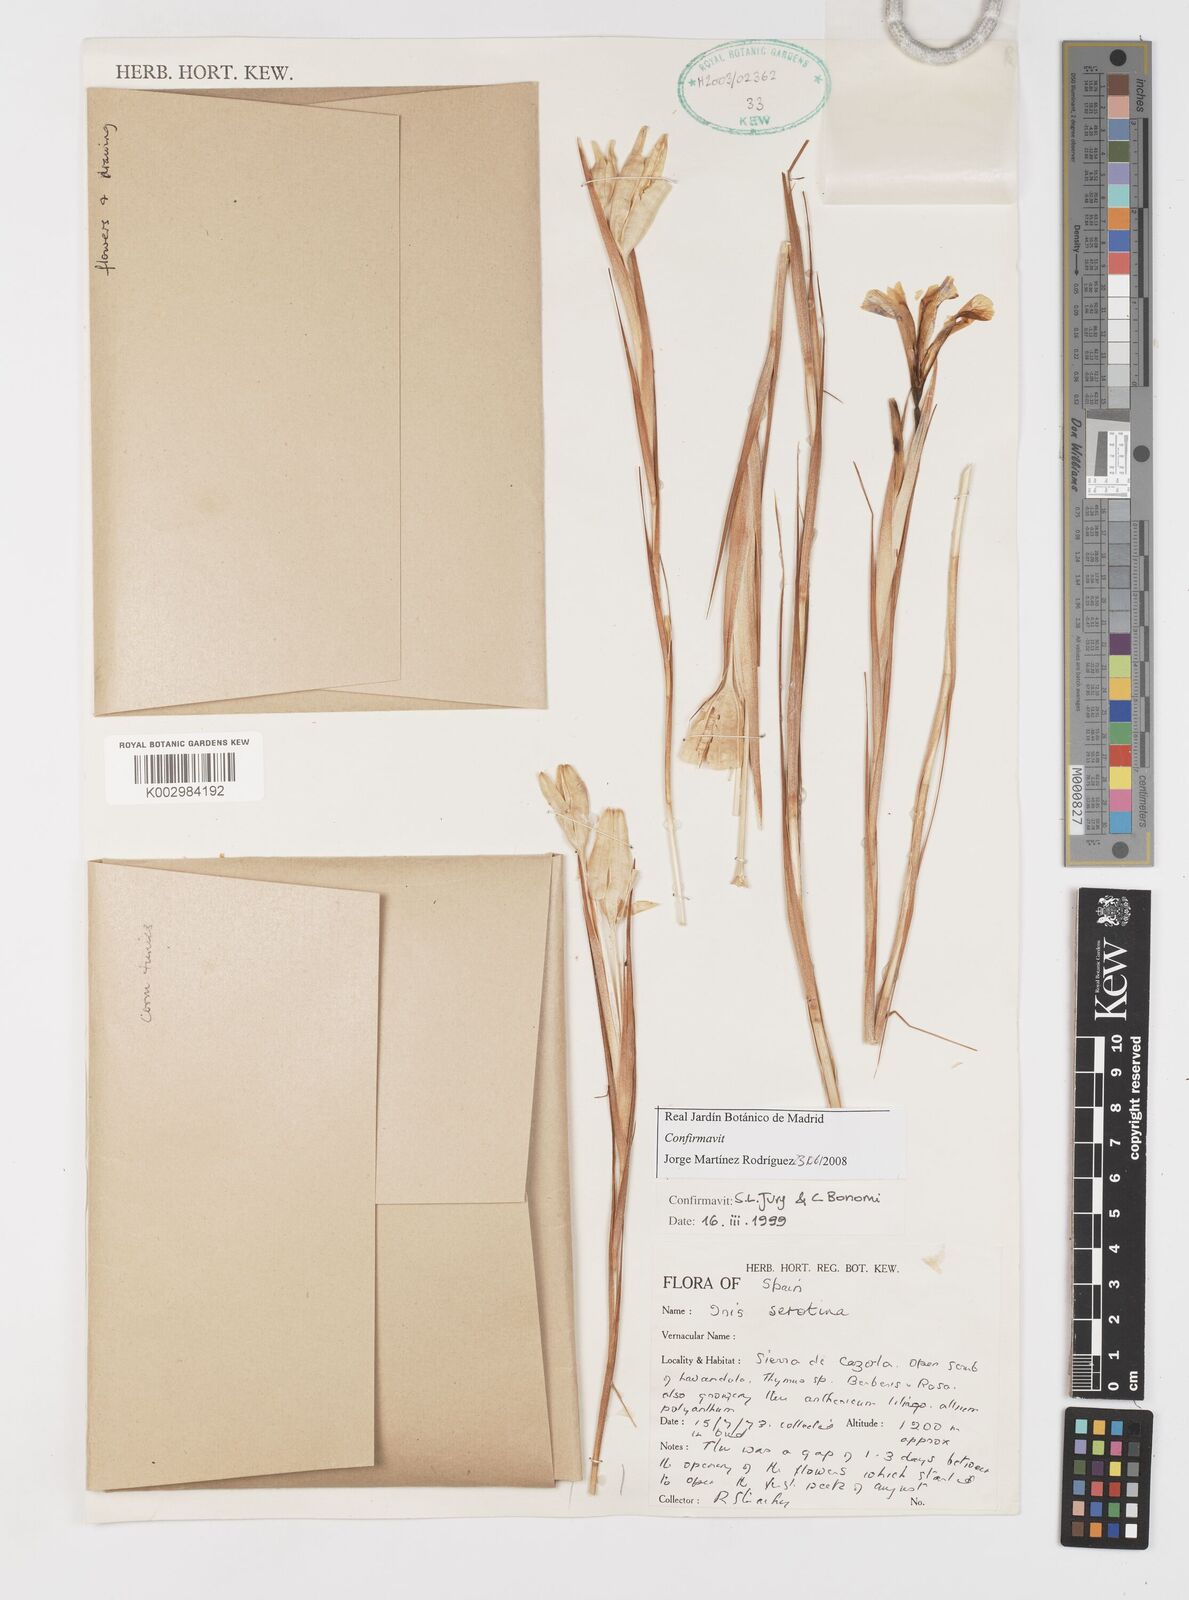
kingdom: Plantae
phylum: Tracheophyta
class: Liliopsida
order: Asparagales
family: Iridaceae
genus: Iris
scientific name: Iris serotina
